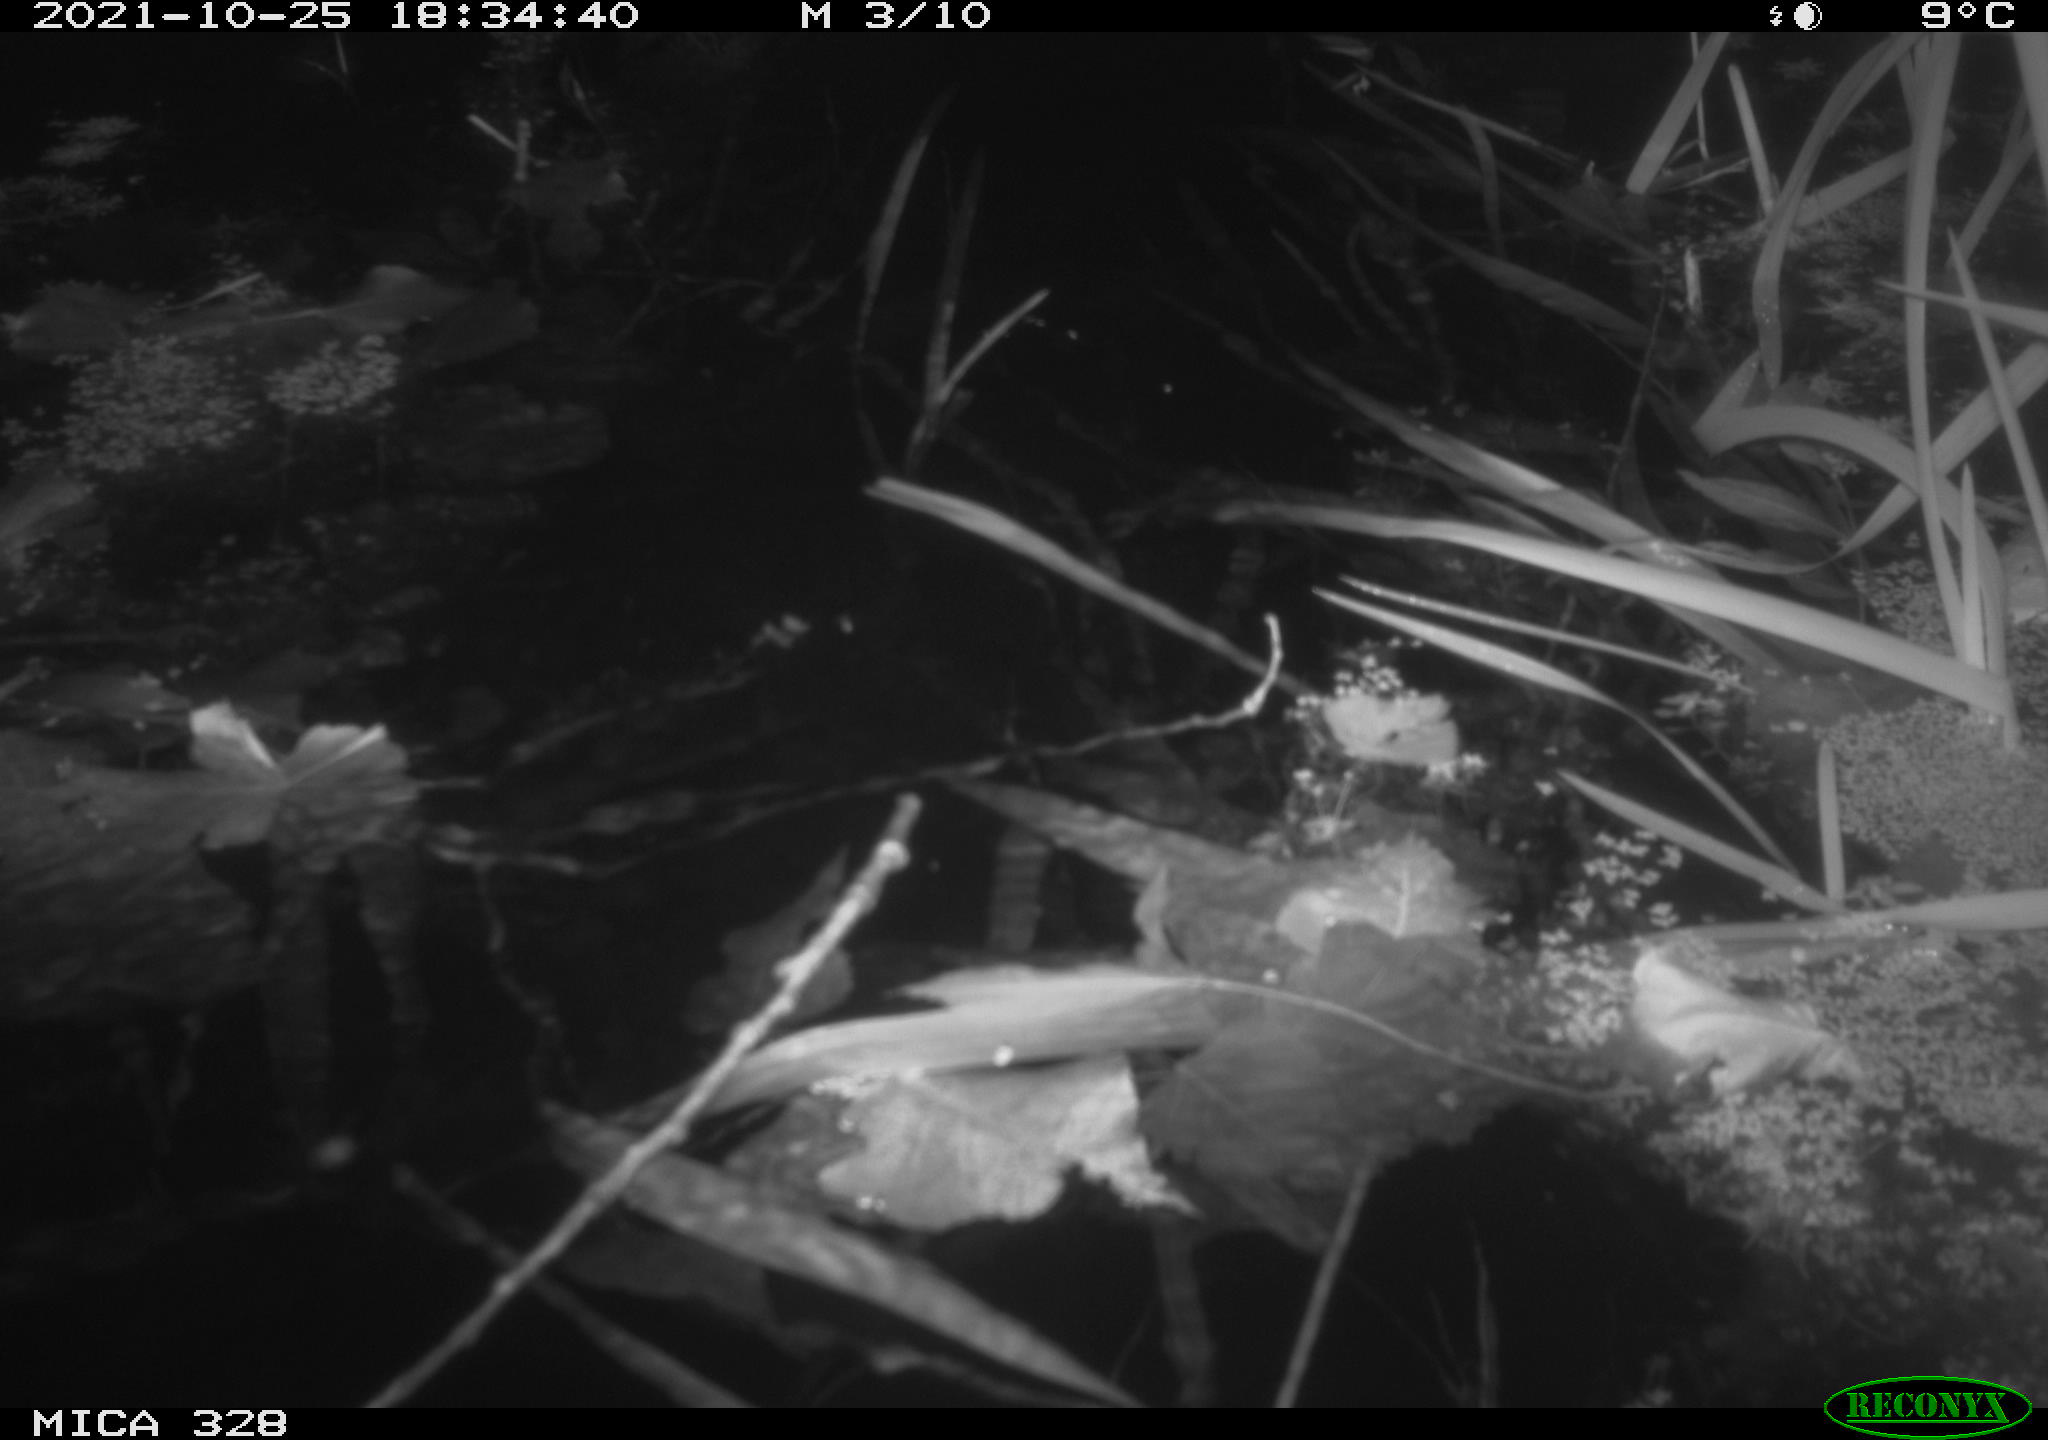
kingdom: Animalia
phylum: Chordata
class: Mammalia
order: Rodentia
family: Cricetidae
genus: Ondatra
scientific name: Ondatra zibethicus
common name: Muskrat
